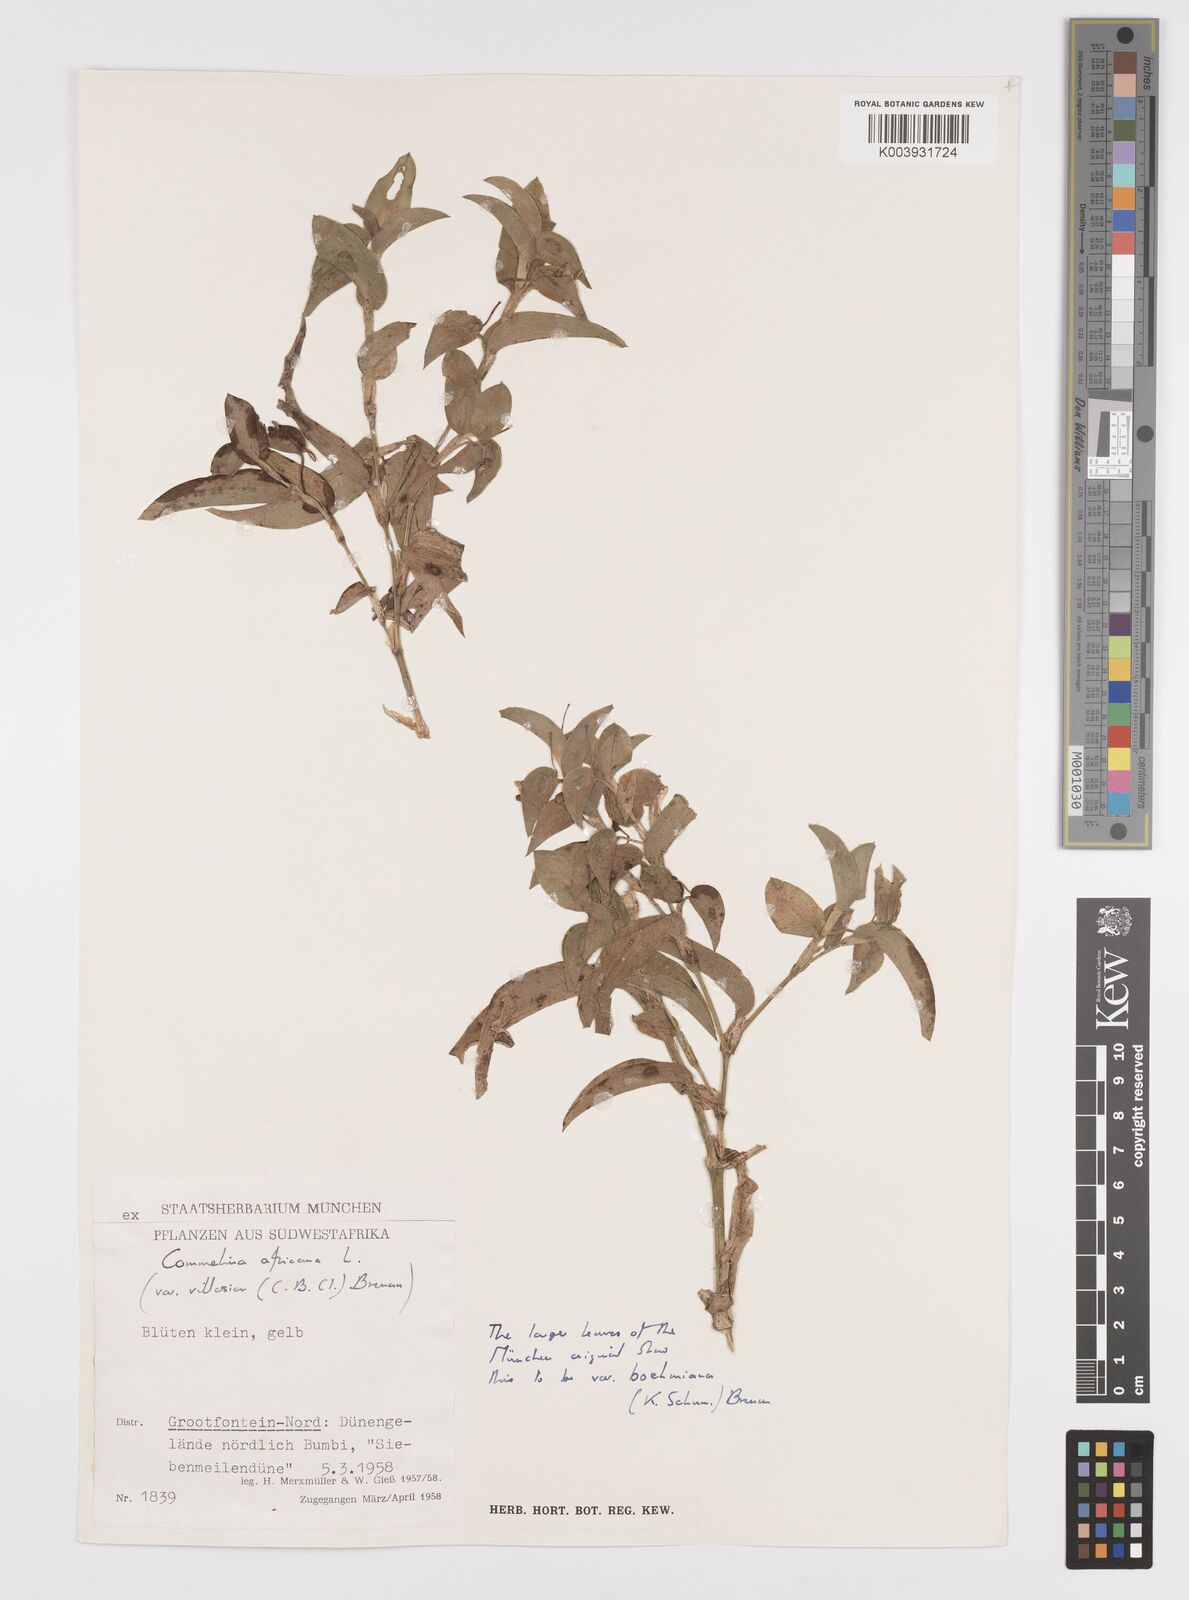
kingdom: Plantae
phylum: Tracheophyta
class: Liliopsida
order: Commelinales
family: Commelinaceae
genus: Commelina
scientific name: Commelina africana
